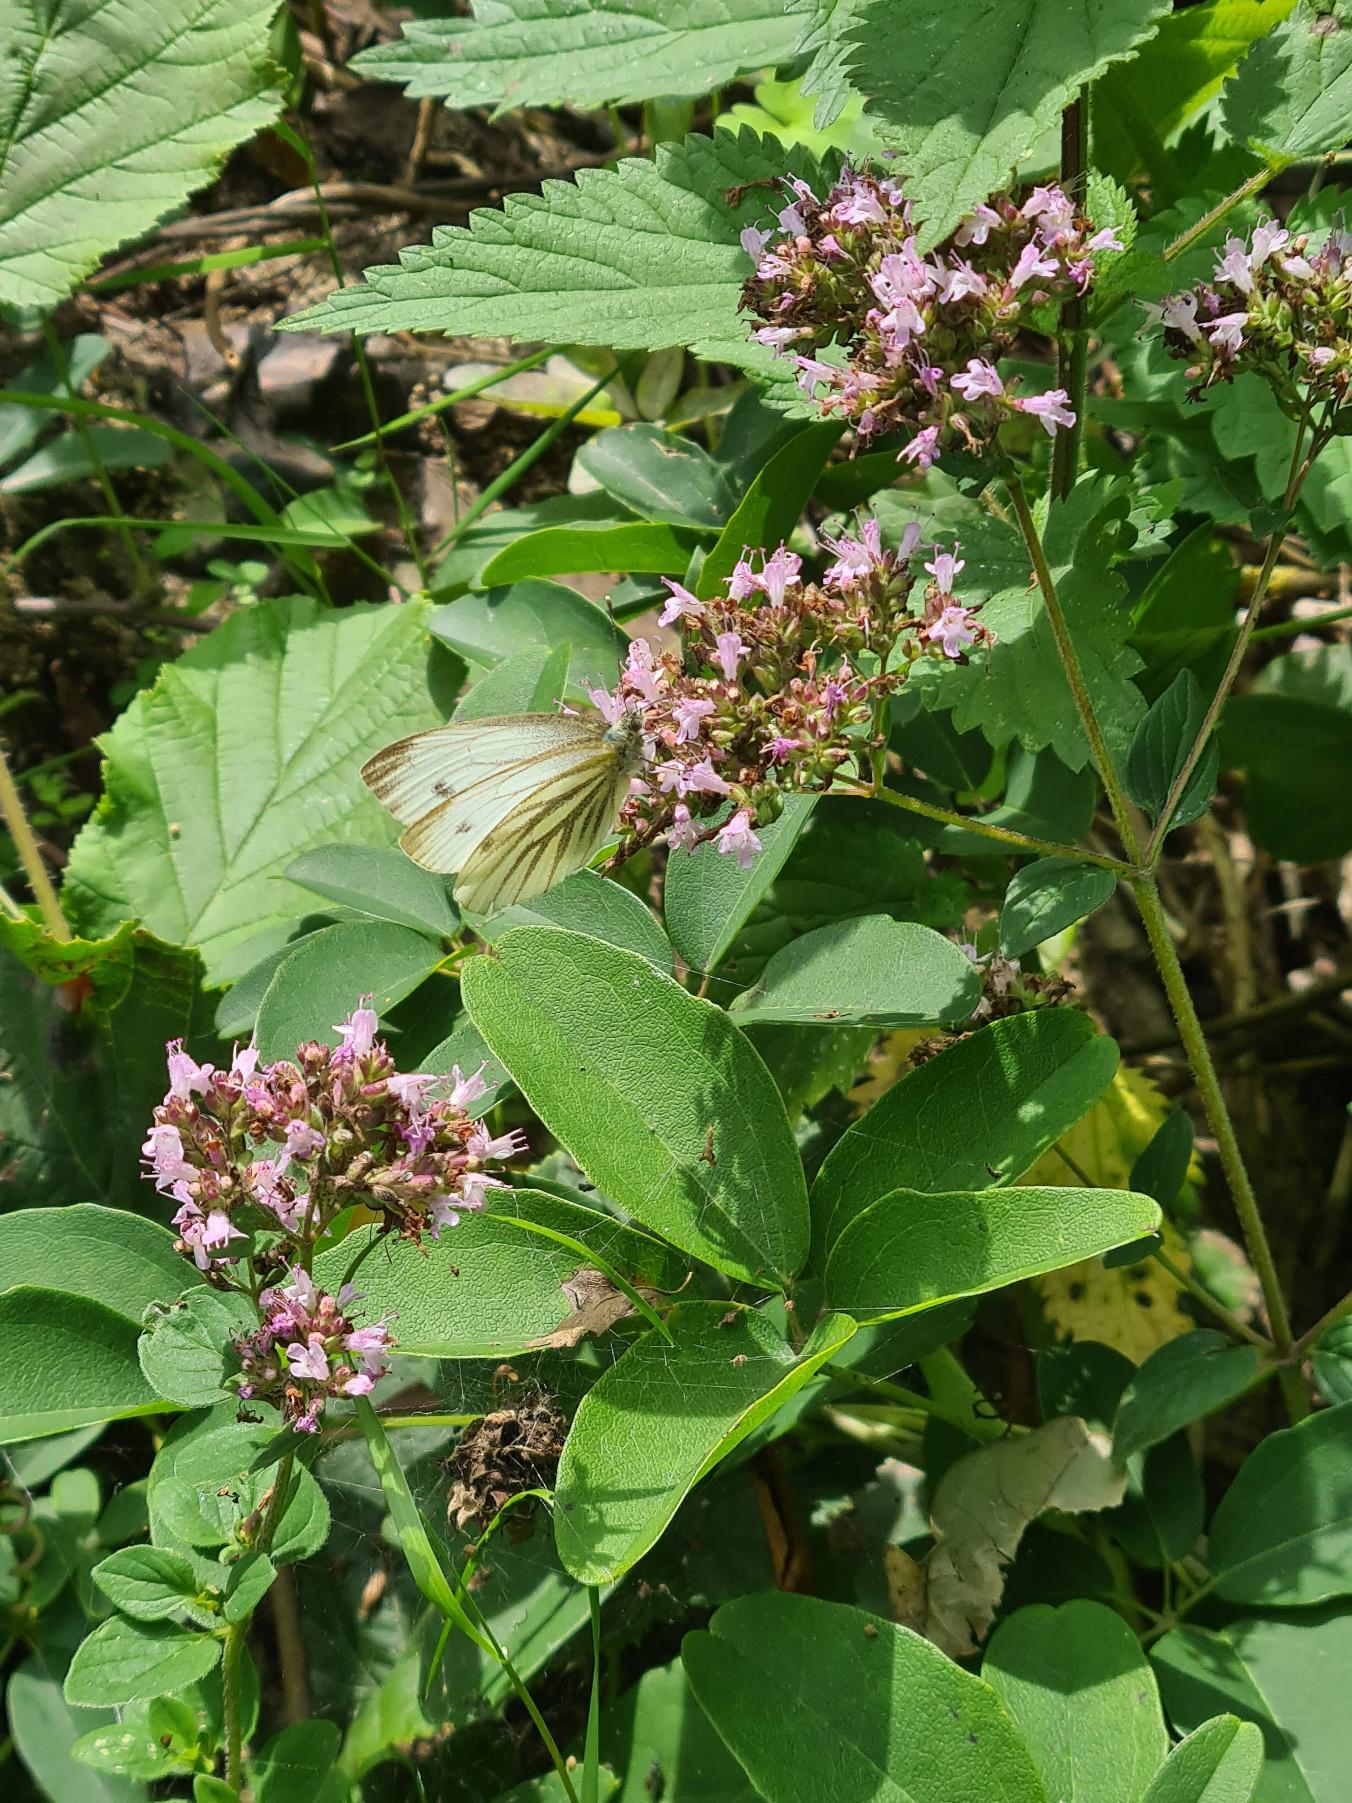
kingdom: Animalia
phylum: Arthropoda
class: Insecta
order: Lepidoptera
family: Pieridae
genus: Pieris
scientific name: Pieris napi
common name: Grønåret kålsommerfugl
